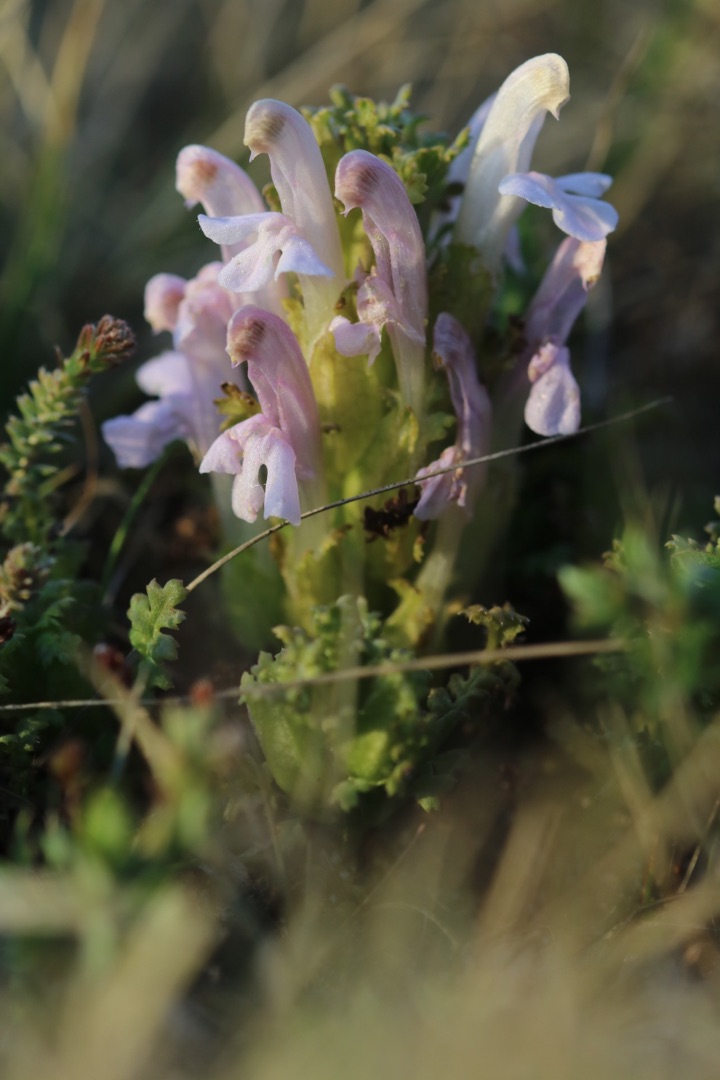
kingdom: Plantae
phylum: Tracheophyta
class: Magnoliopsida
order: Lamiales
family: Orobanchaceae
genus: Pedicularis
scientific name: Pedicularis sylvatica
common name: Mose-troldurt
